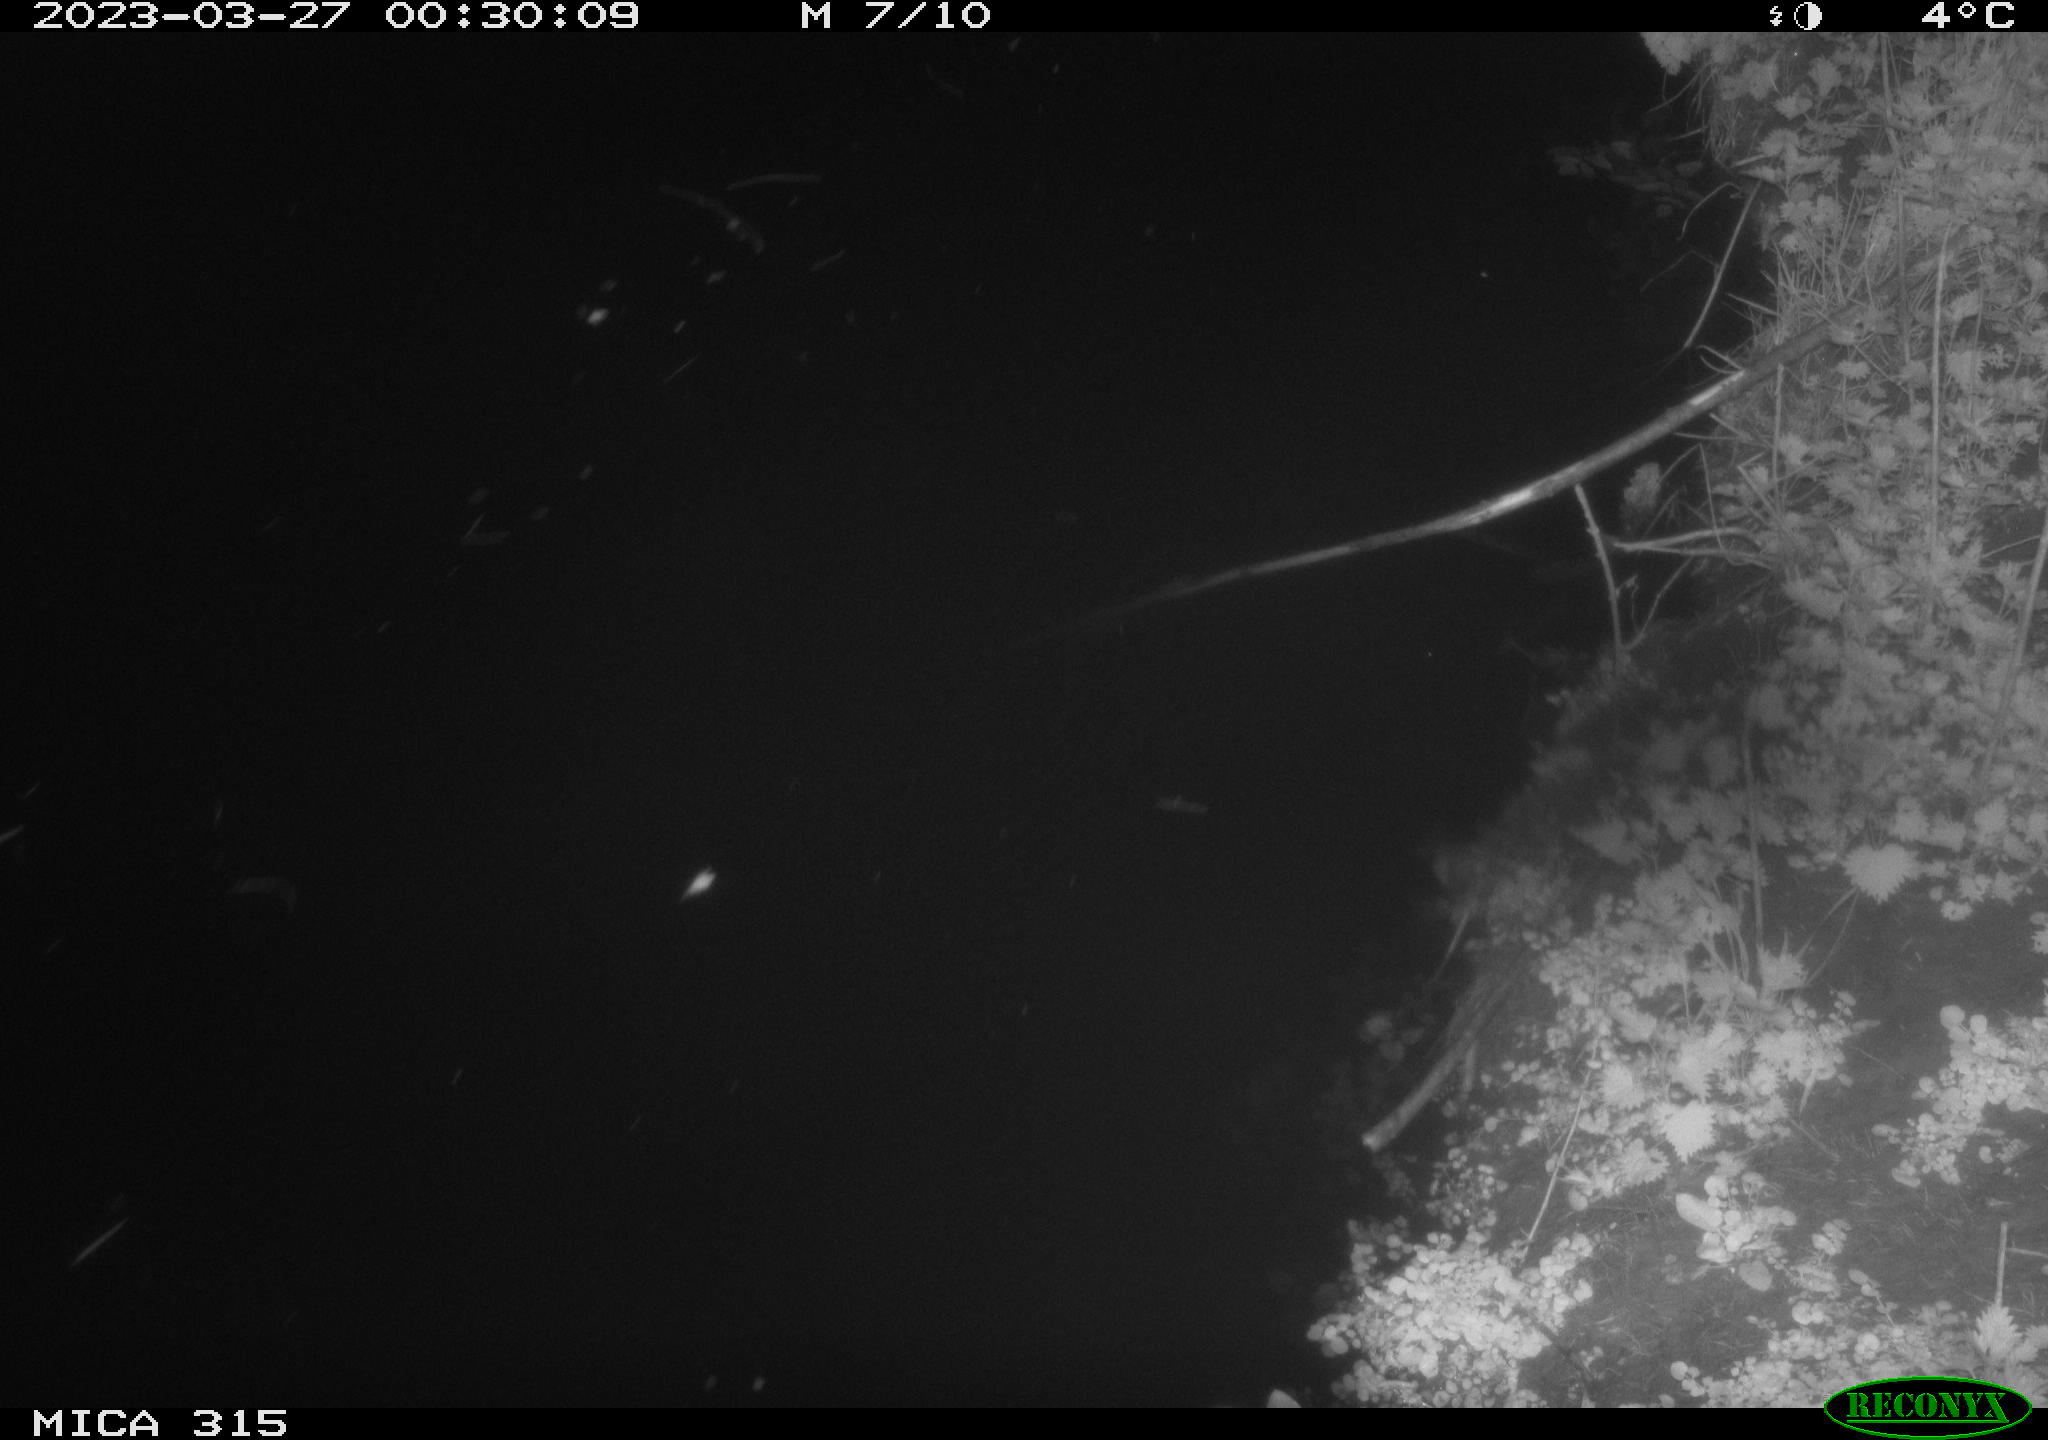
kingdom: Animalia
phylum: Chordata
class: Mammalia
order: Rodentia
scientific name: Rodentia
